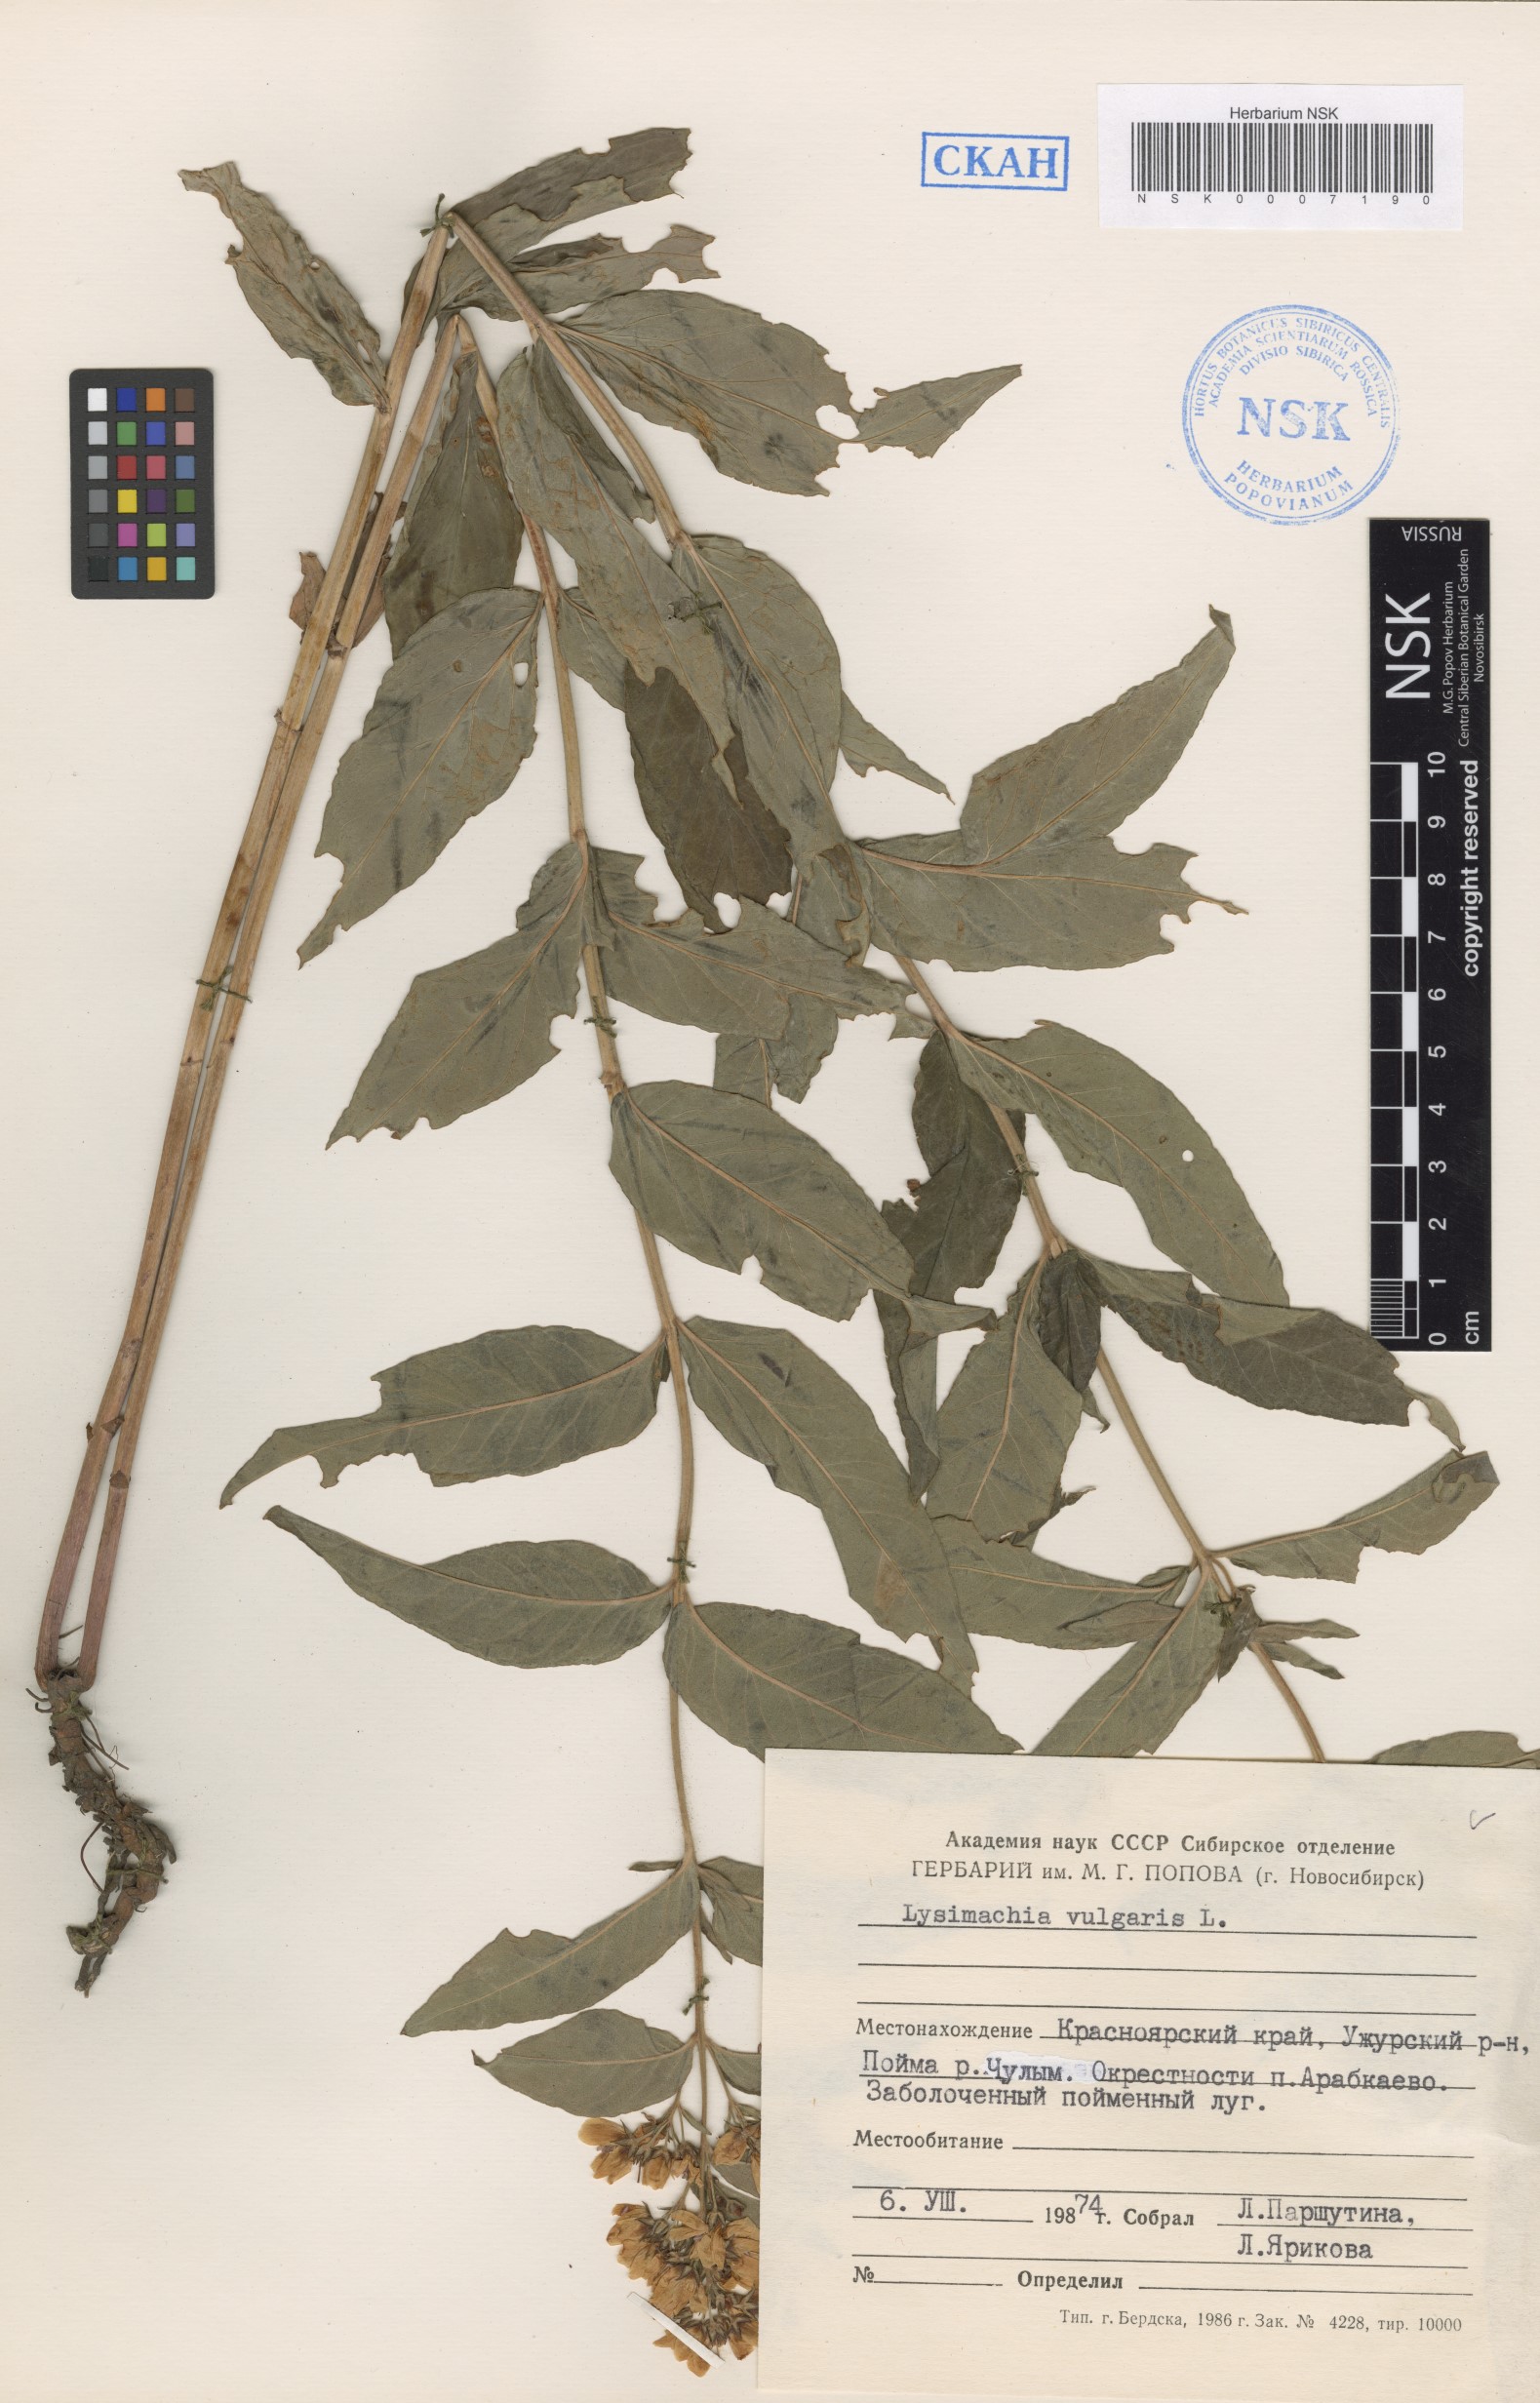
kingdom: Plantae
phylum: Tracheophyta
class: Magnoliopsida
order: Ericales
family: Primulaceae
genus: Lysimachia
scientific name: Lysimachia vulgaris
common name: Yellow loosestrife
